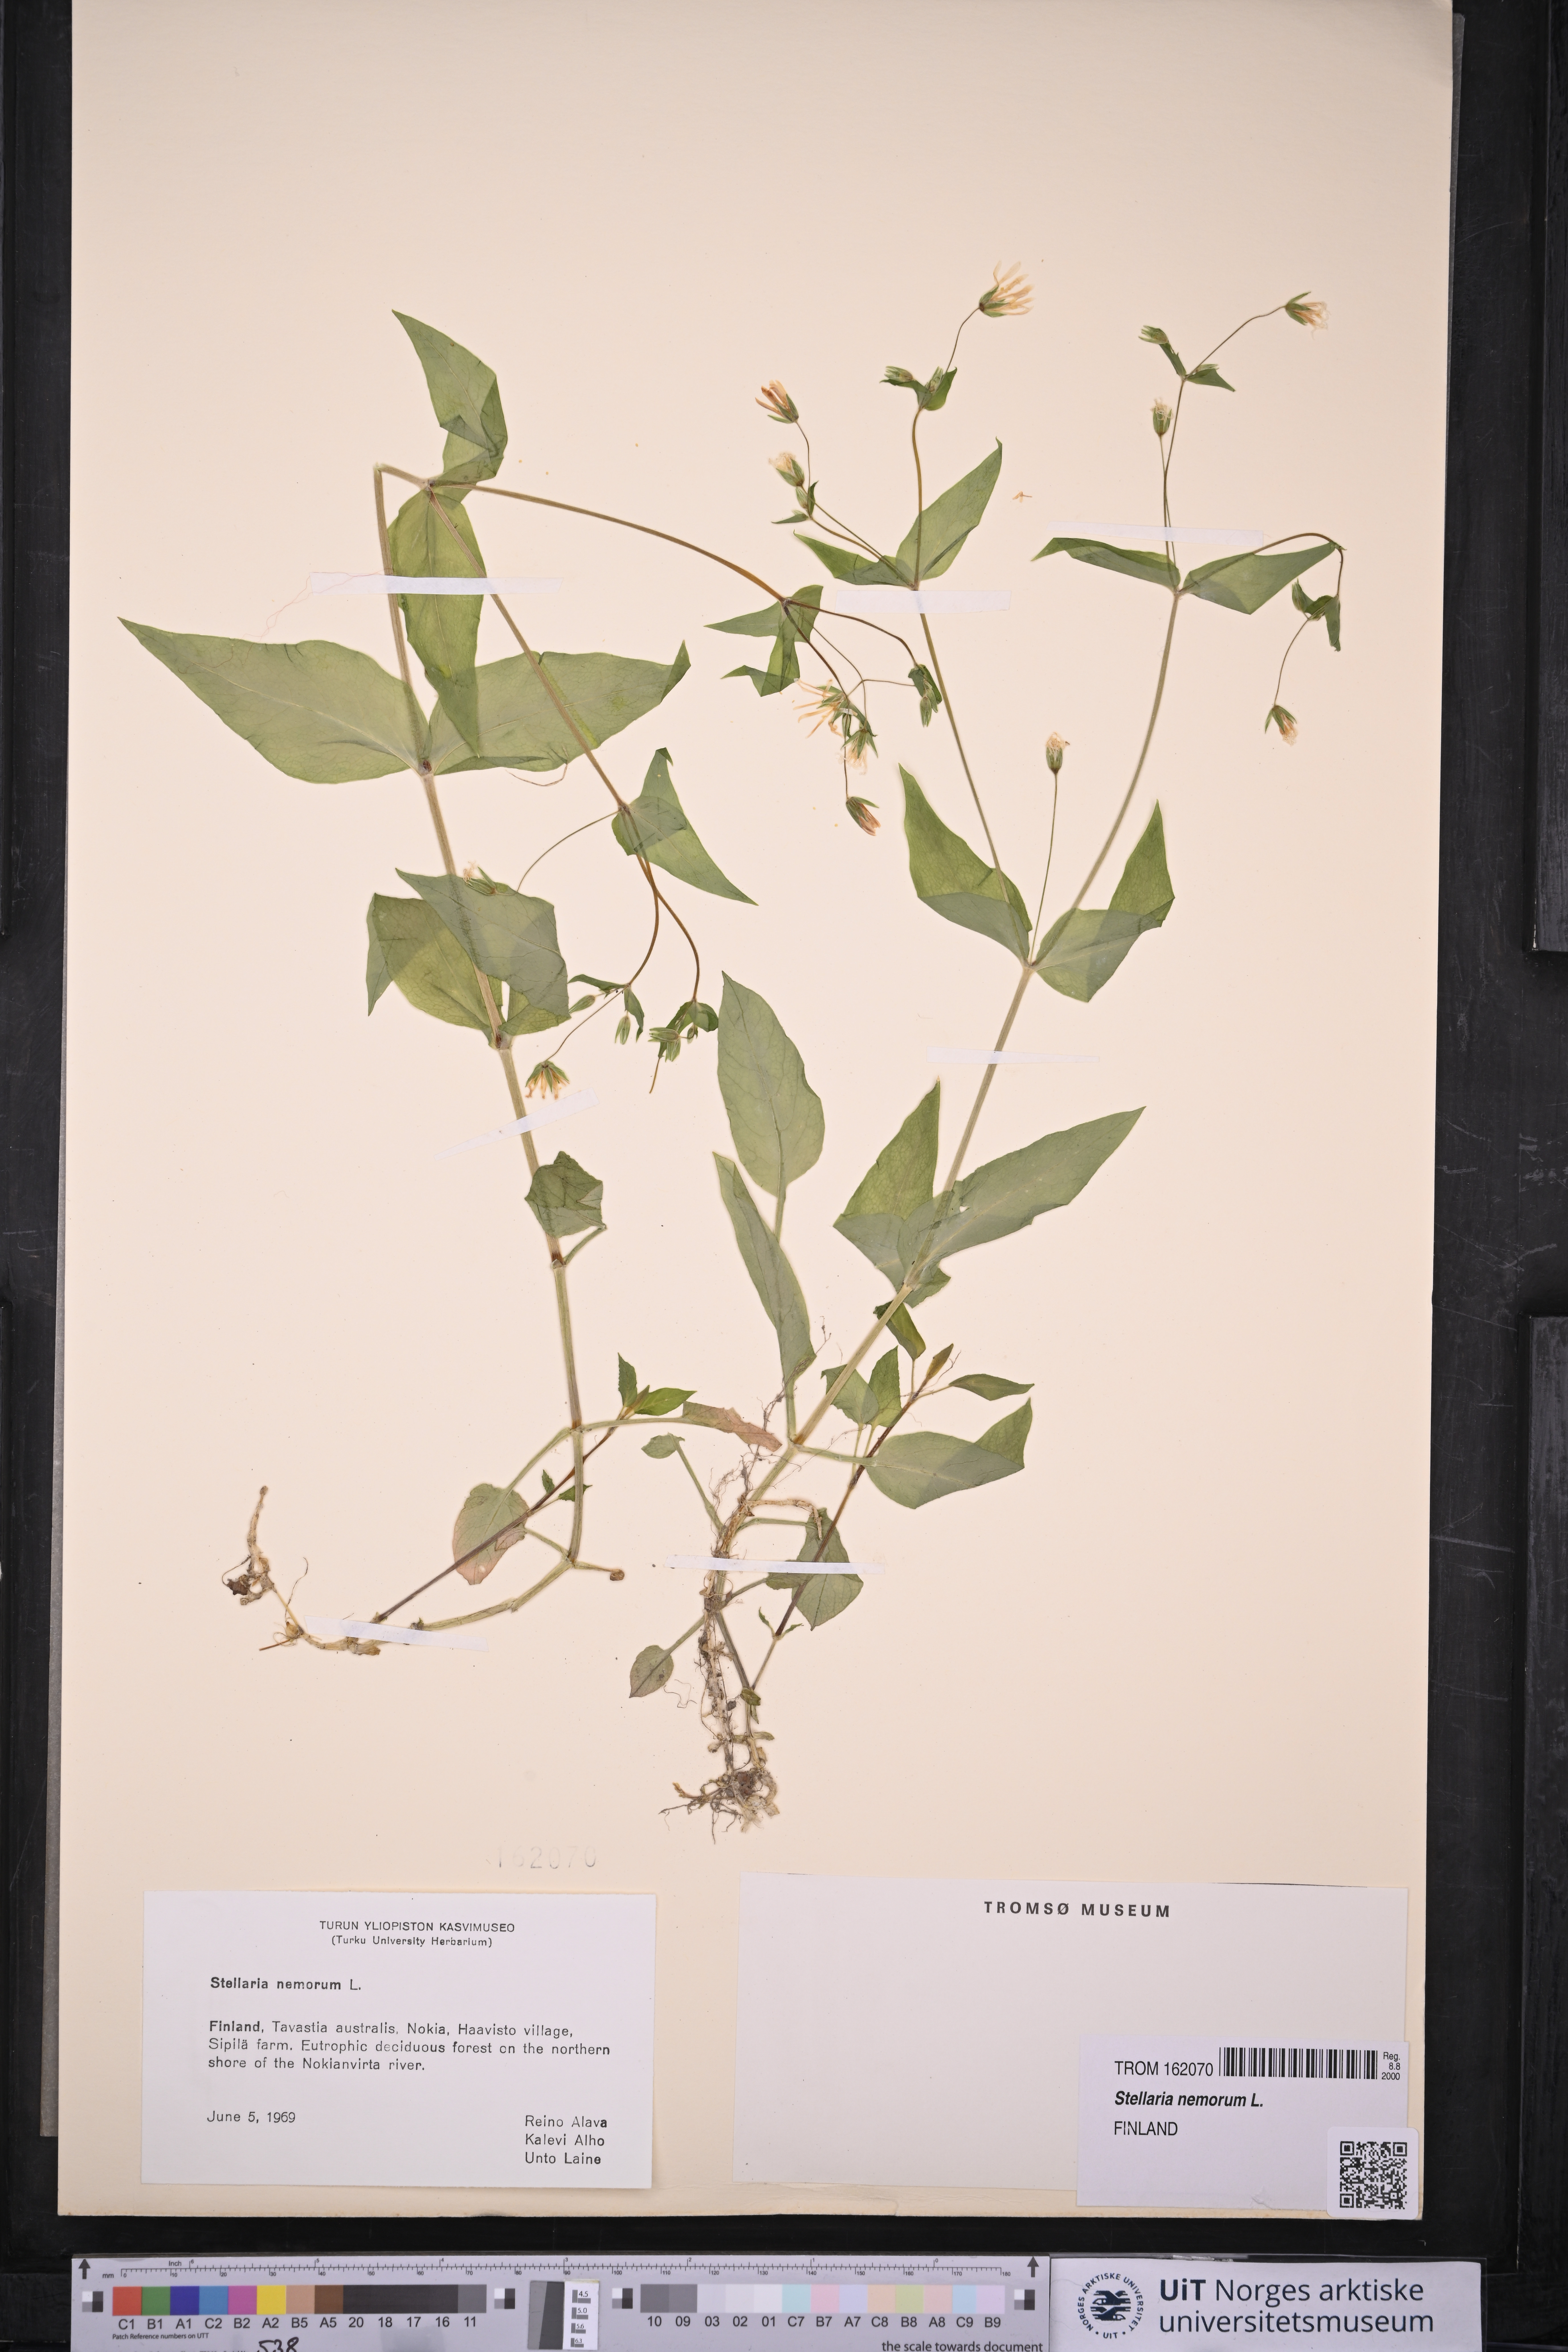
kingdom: Plantae
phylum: Tracheophyta
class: Magnoliopsida
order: Caryophyllales
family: Caryophyllaceae
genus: Stellaria
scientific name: Stellaria nemorum
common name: Wood stitchwort
